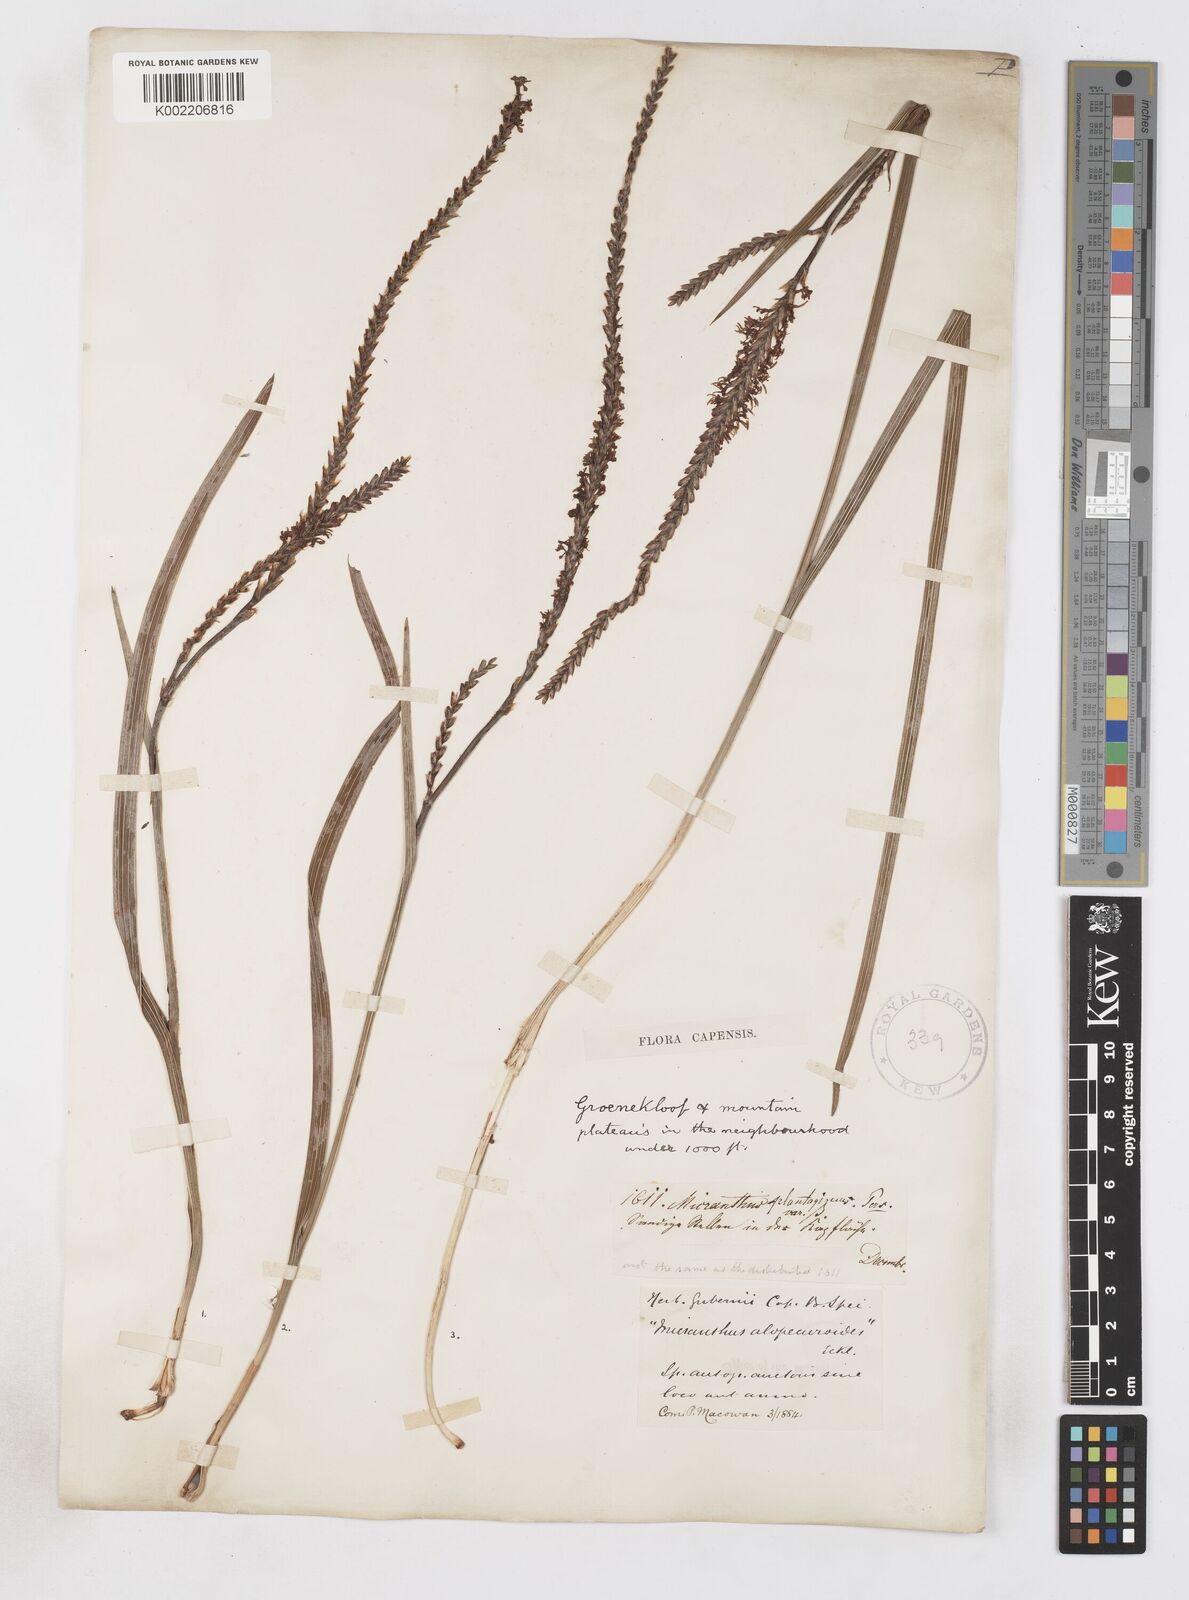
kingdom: Plantae
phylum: Tracheophyta
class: Liliopsida
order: Asparagales
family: Iridaceae
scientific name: Iridaceae
